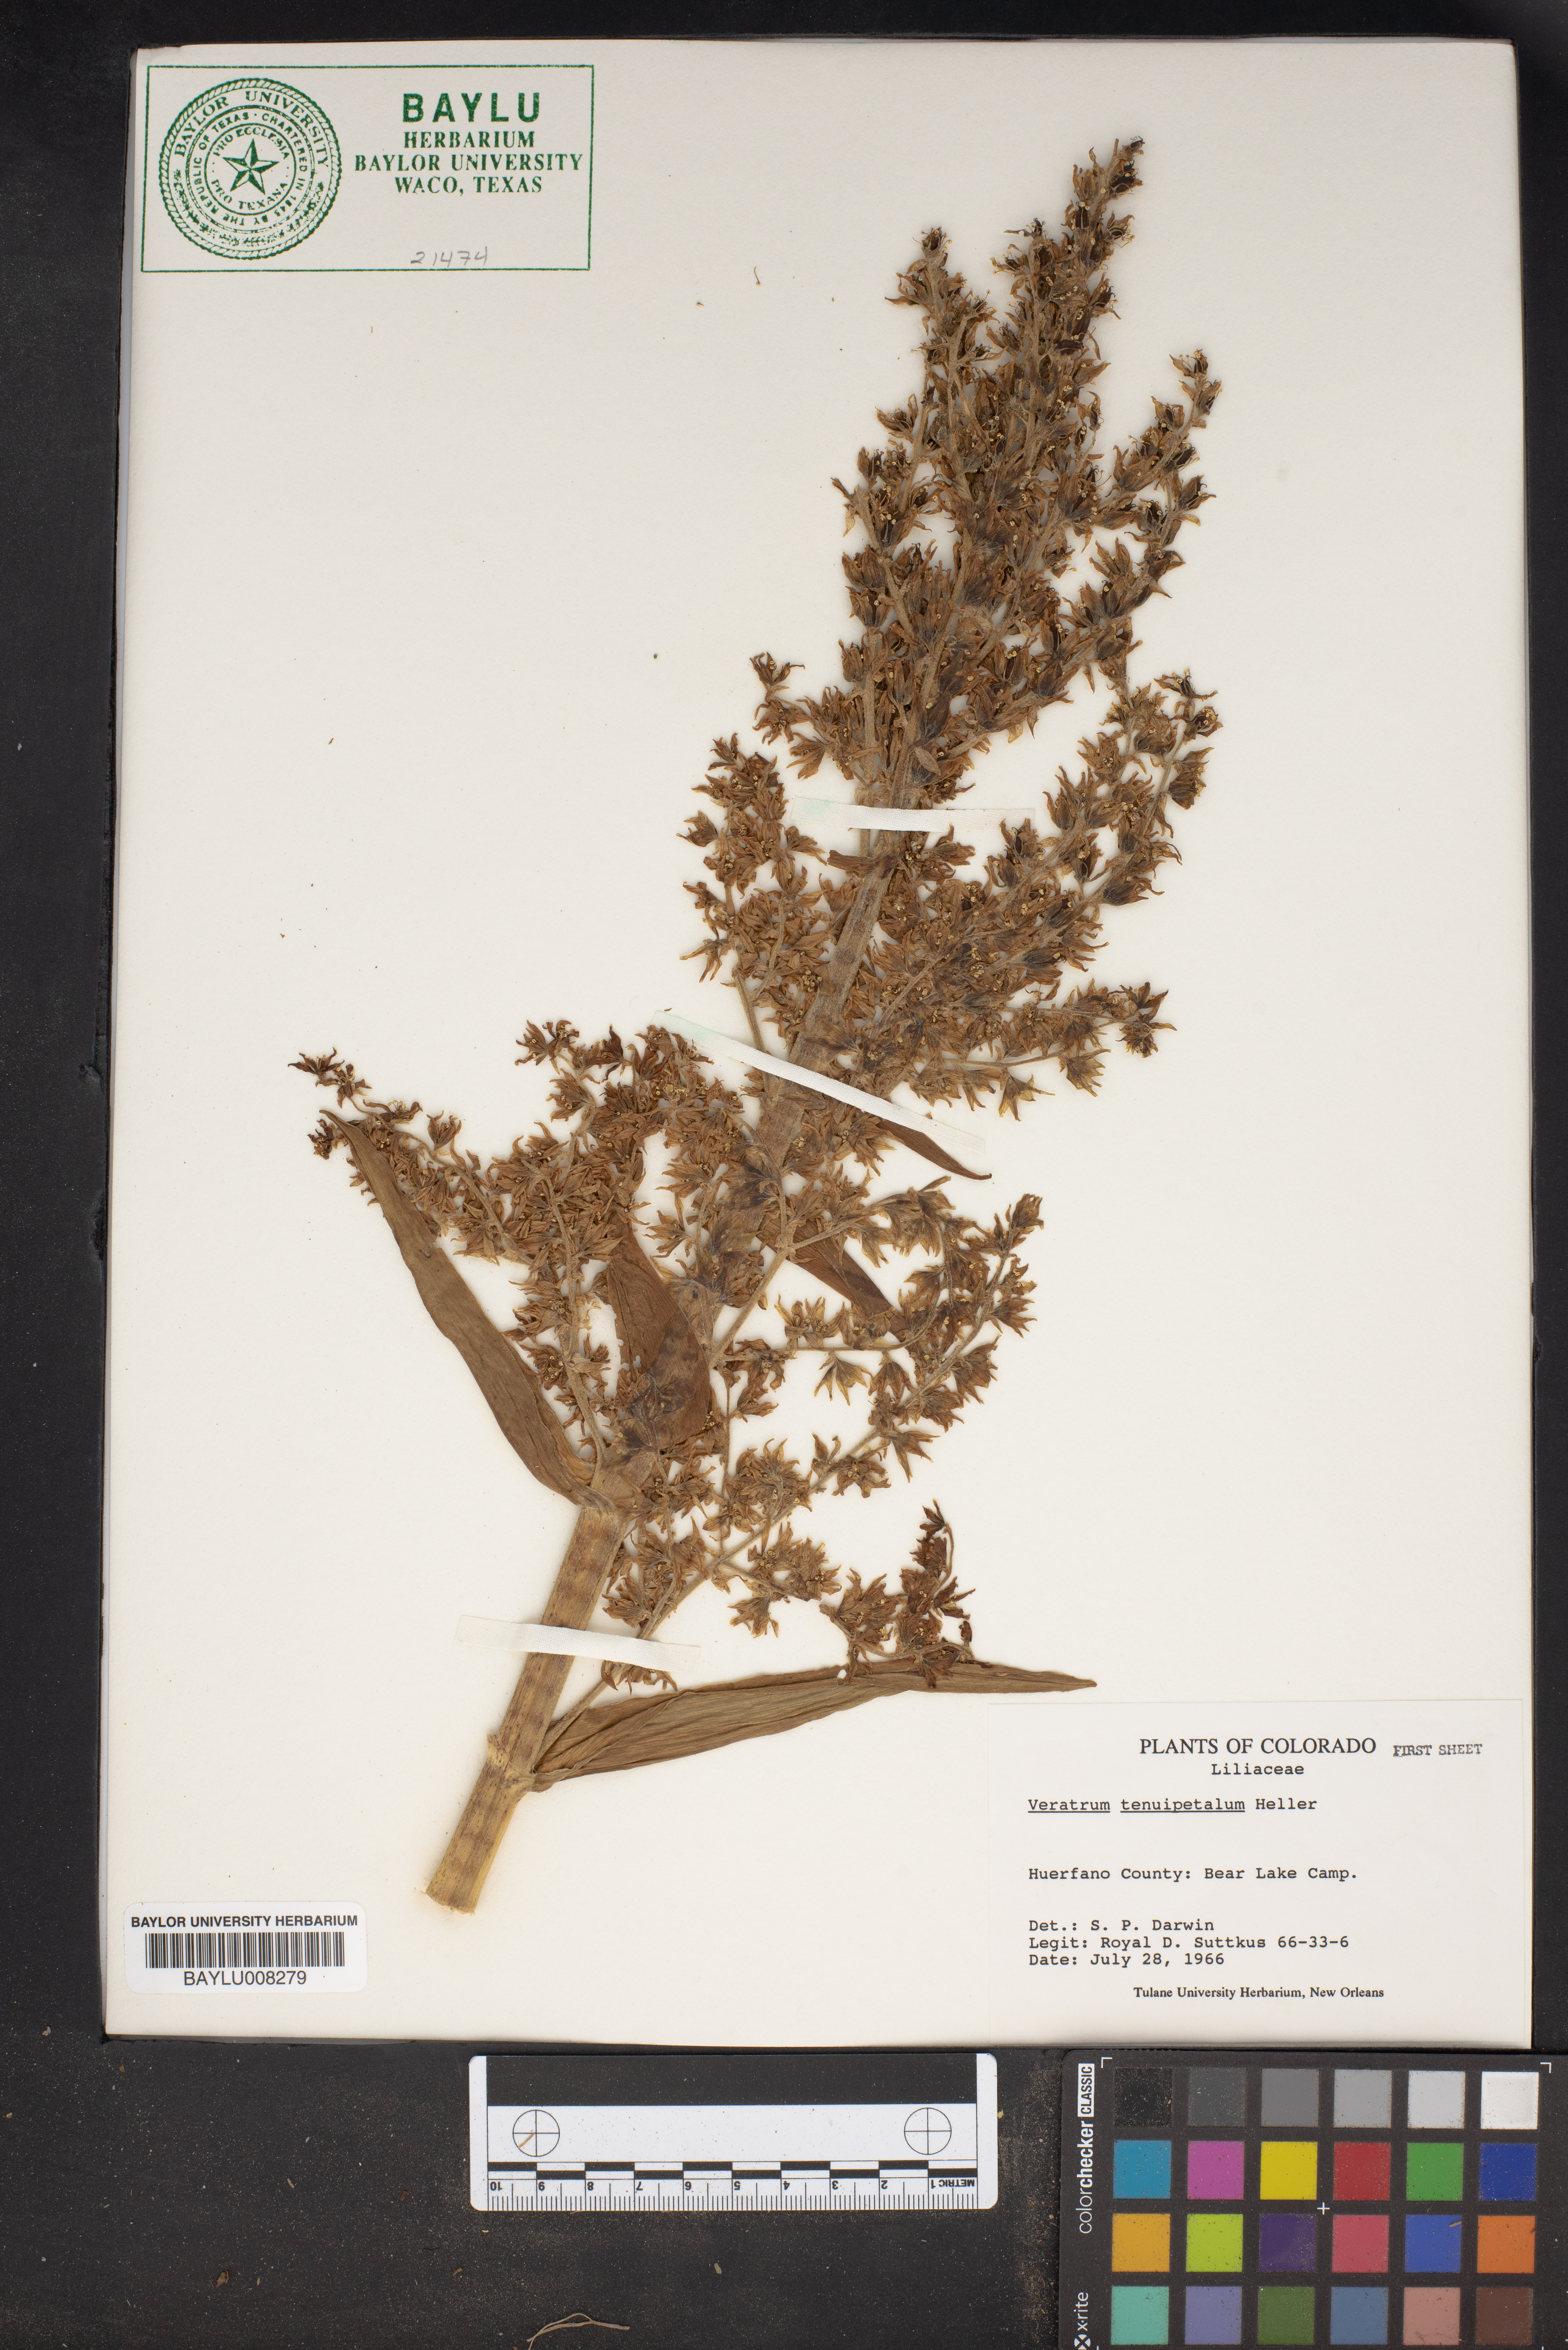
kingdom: Plantae
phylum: Tracheophyta
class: Liliopsida
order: Liliales
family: Melanthiaceae
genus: Veratrum
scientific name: Veratrum californicum
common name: California veratrum
